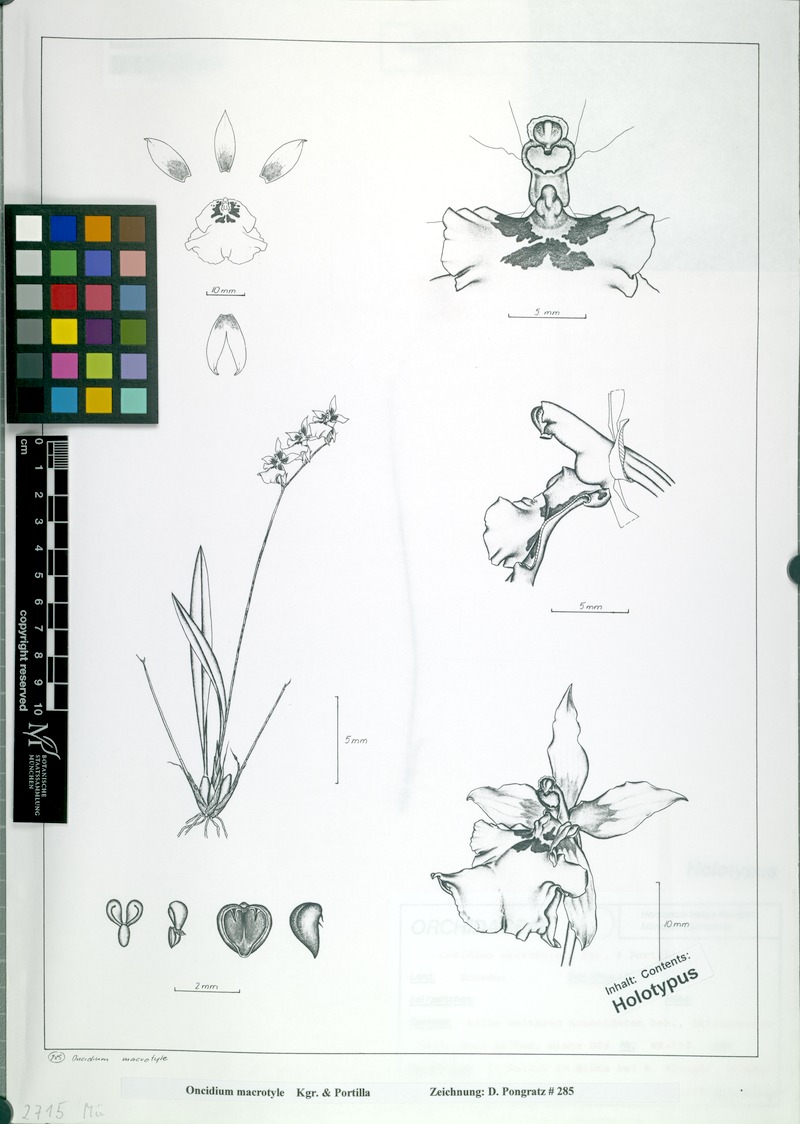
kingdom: Plantae
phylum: Tracheophyta
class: Liliopsida
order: Asparagales
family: Orchidaceae
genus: Caucaea
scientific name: Caucaea macrotyle
